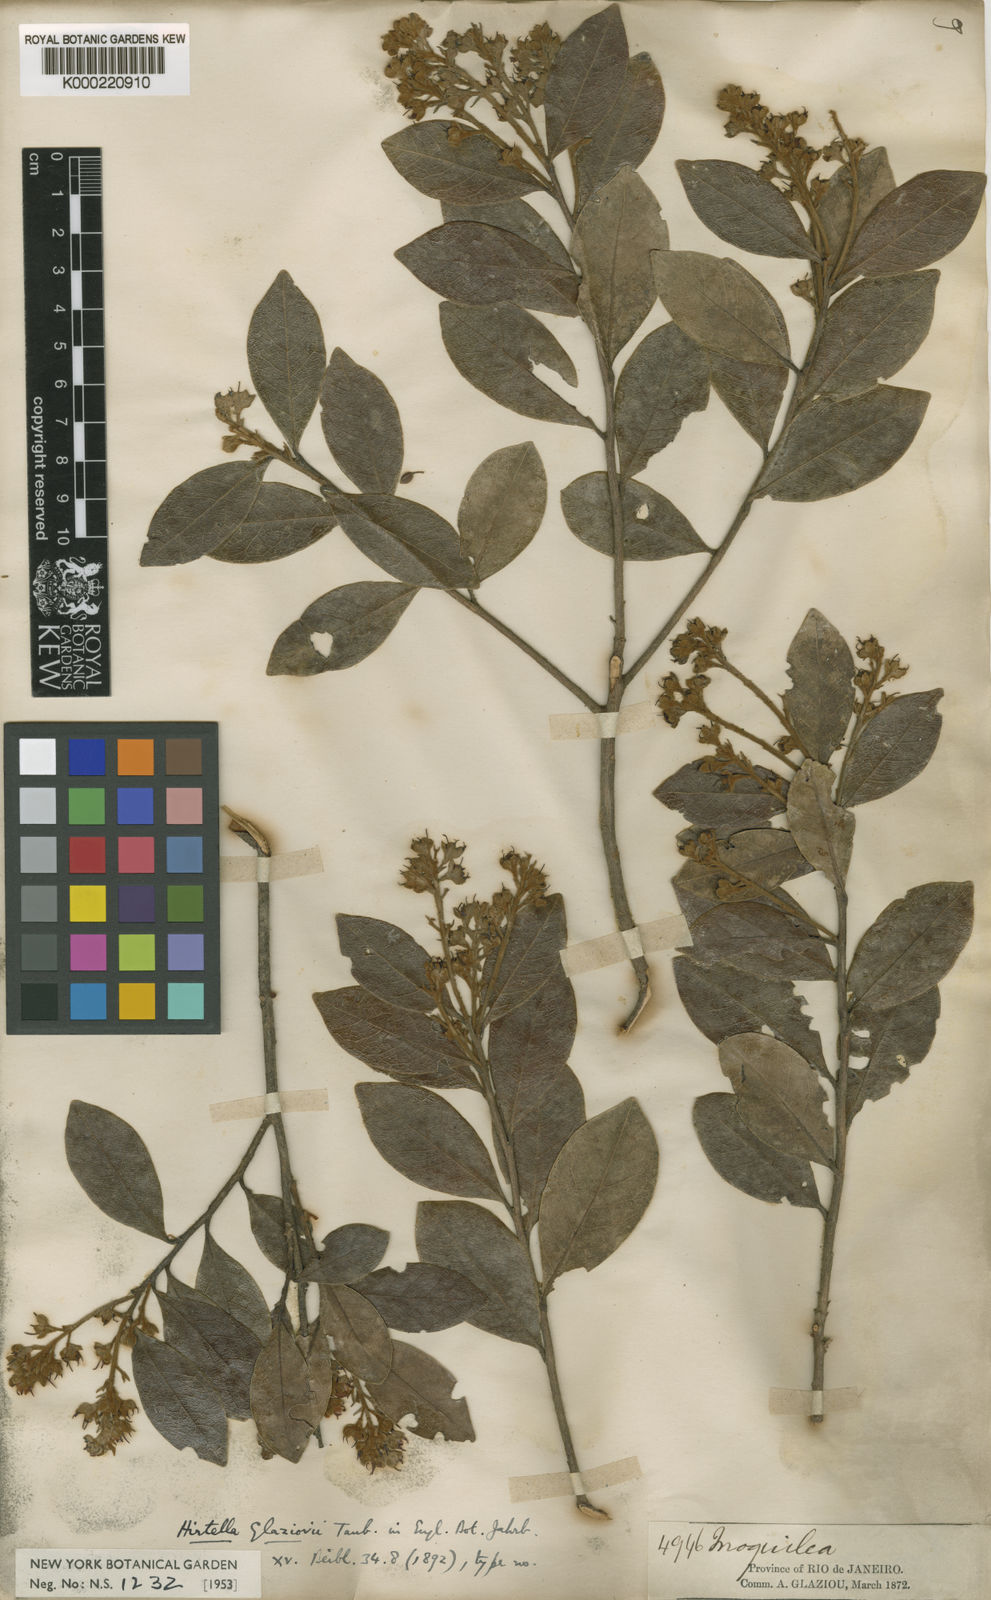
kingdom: Plantae
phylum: Tracheophyta
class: Magnoliopsida
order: Malpighiales
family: Chrysobalanaceae
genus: Hirtella
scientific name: Hirtella glaziovii
